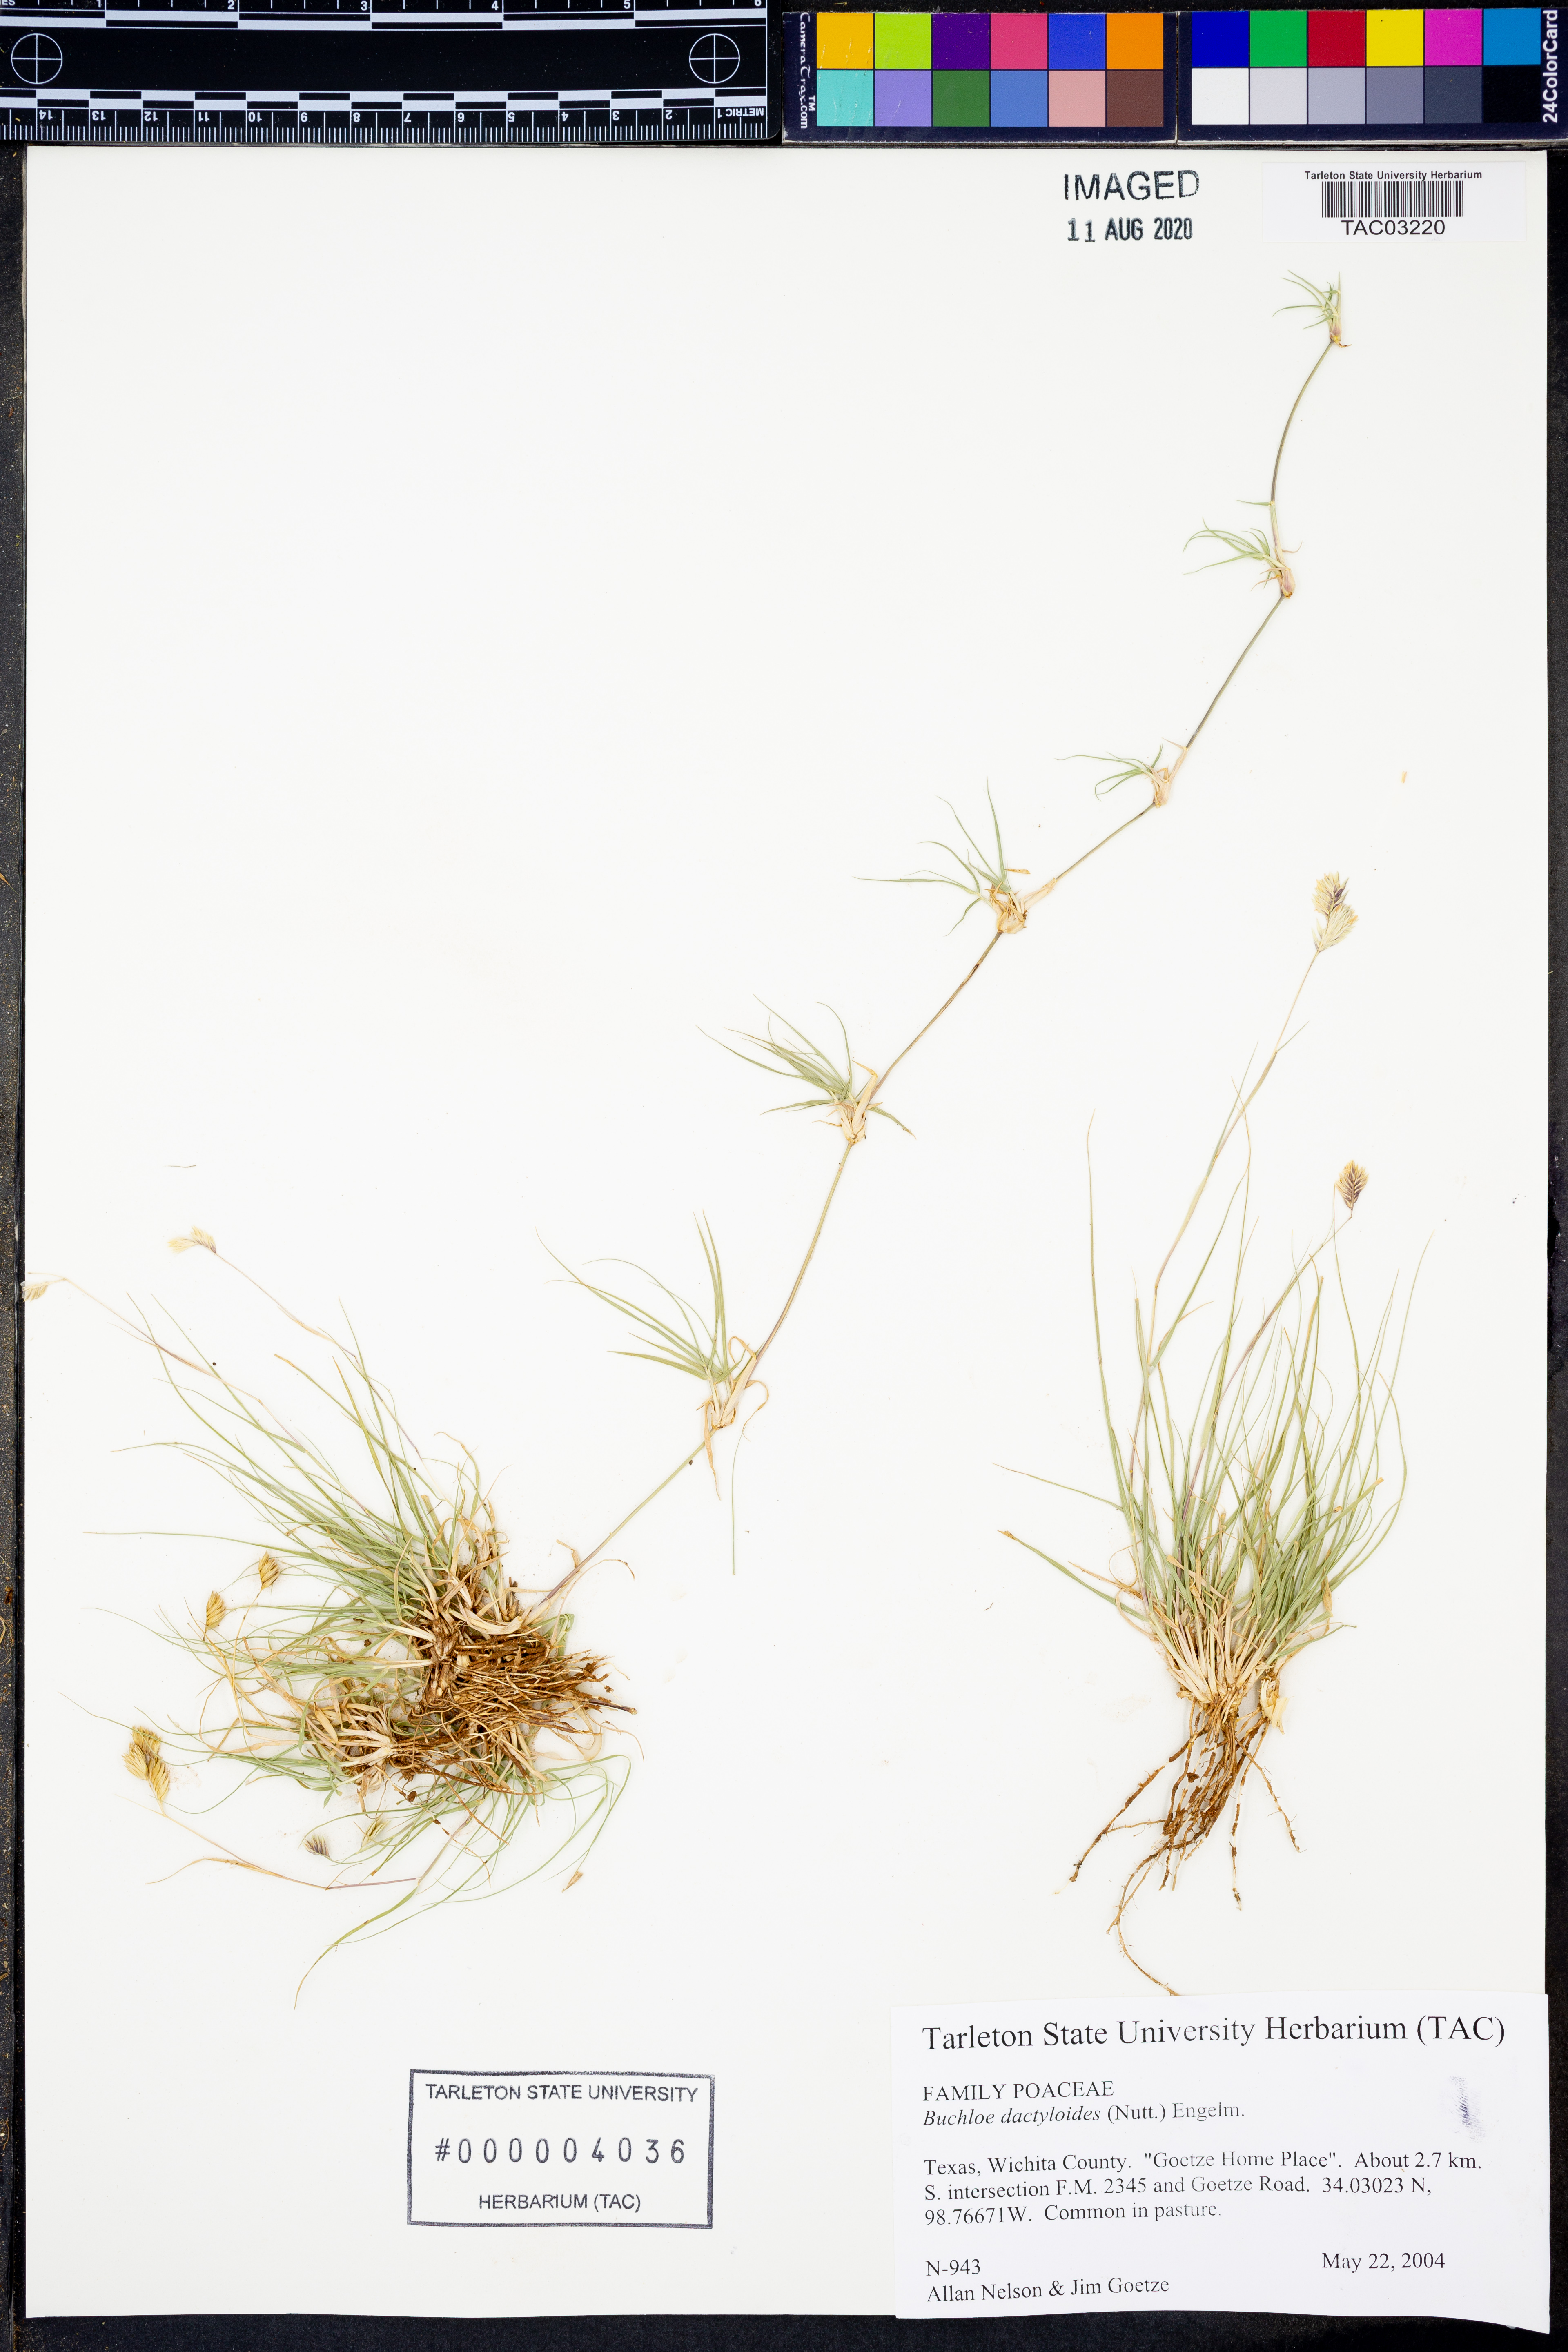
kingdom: Plantae
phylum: Tracheophyta
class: Liliopsida
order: Poales
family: Poaceae
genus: Bouteloua
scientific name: Bouteloua dactyloides
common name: Buffalo grass
